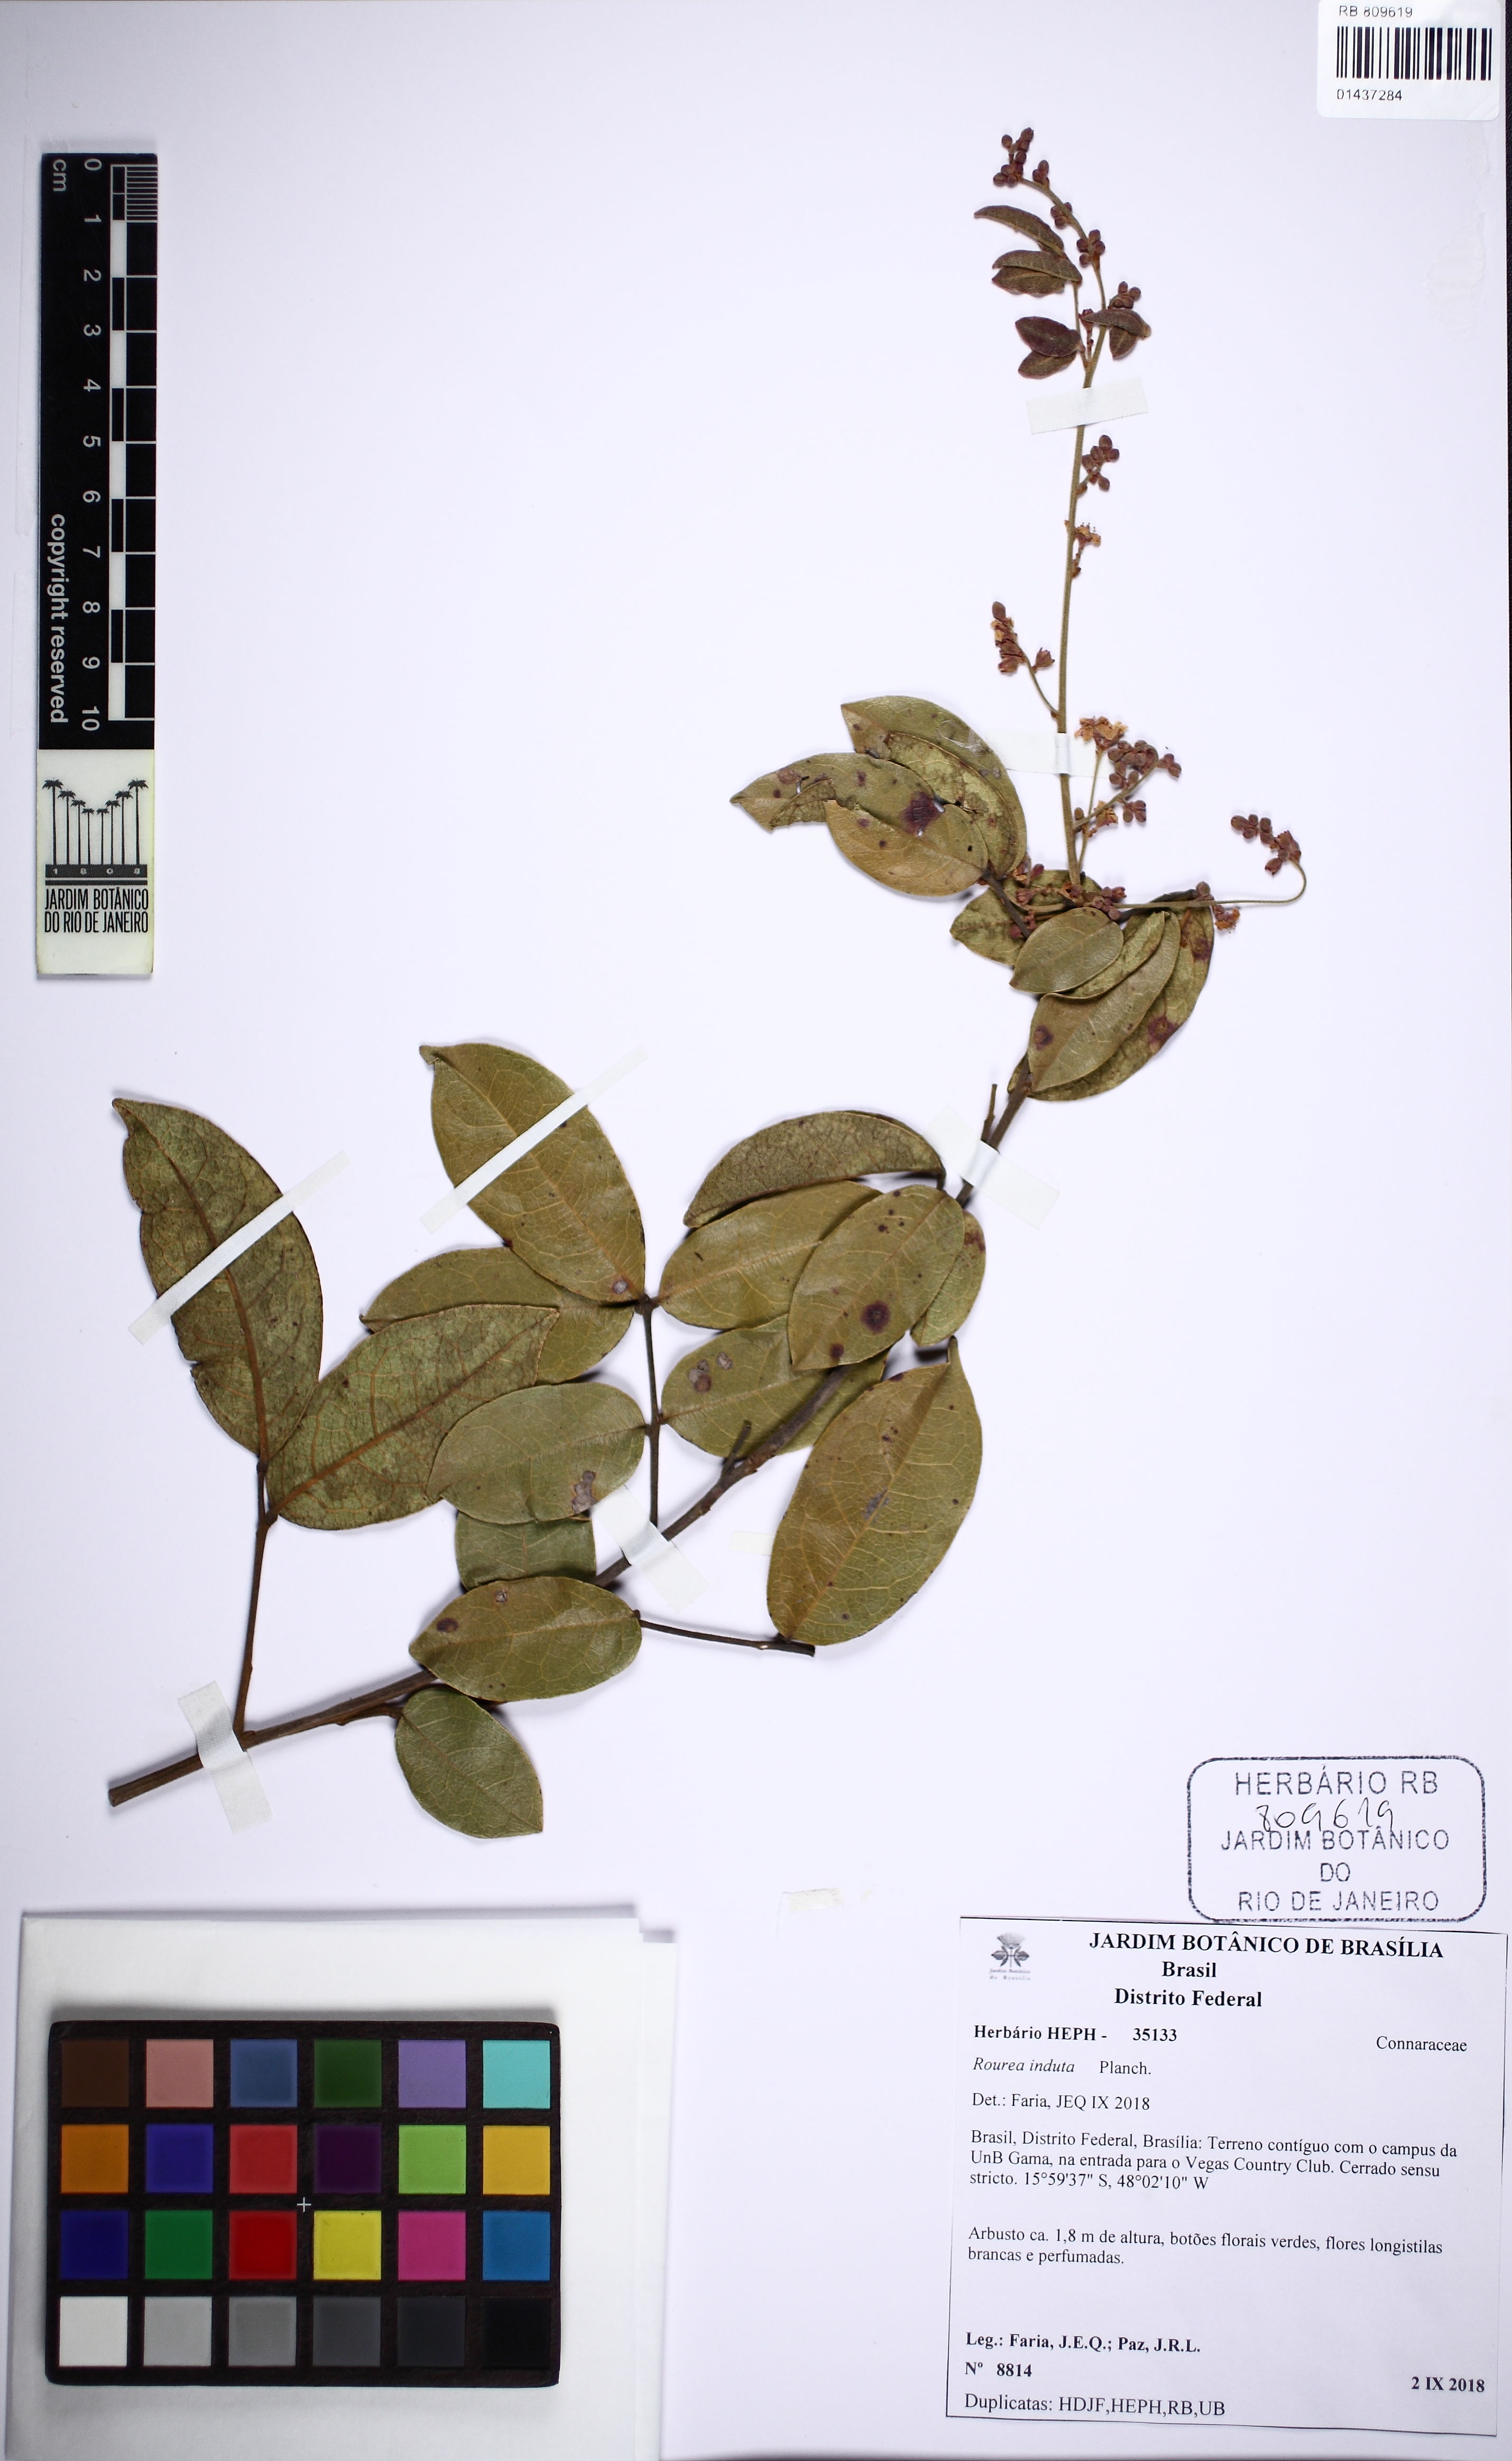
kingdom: Plantae
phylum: Tracheophyta
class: Magnoliopsida
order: Oxalidales
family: Connaraceae
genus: Rourea
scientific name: Rourea induta
